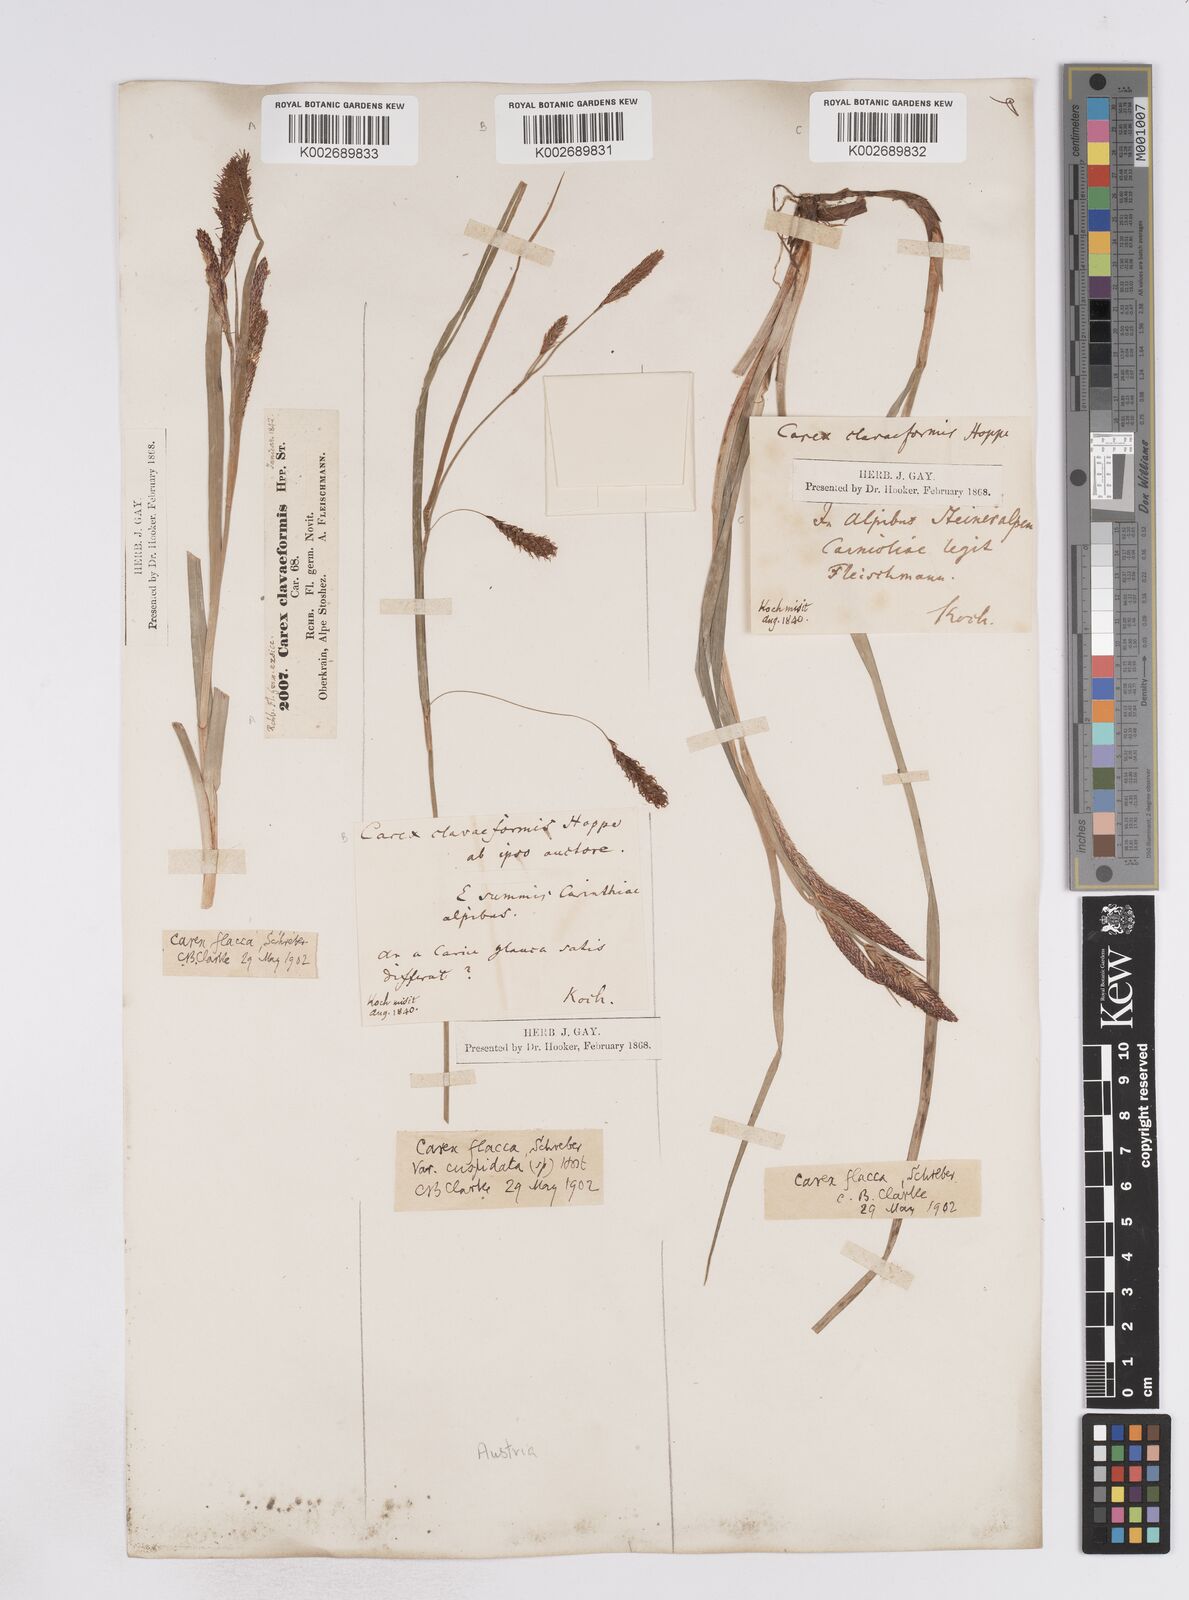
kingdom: Plantae
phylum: Tracheophyta
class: Liliopsida
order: Poales
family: Cyperaceae
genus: Carex
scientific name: Carex flacca
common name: Glaucous sedge
